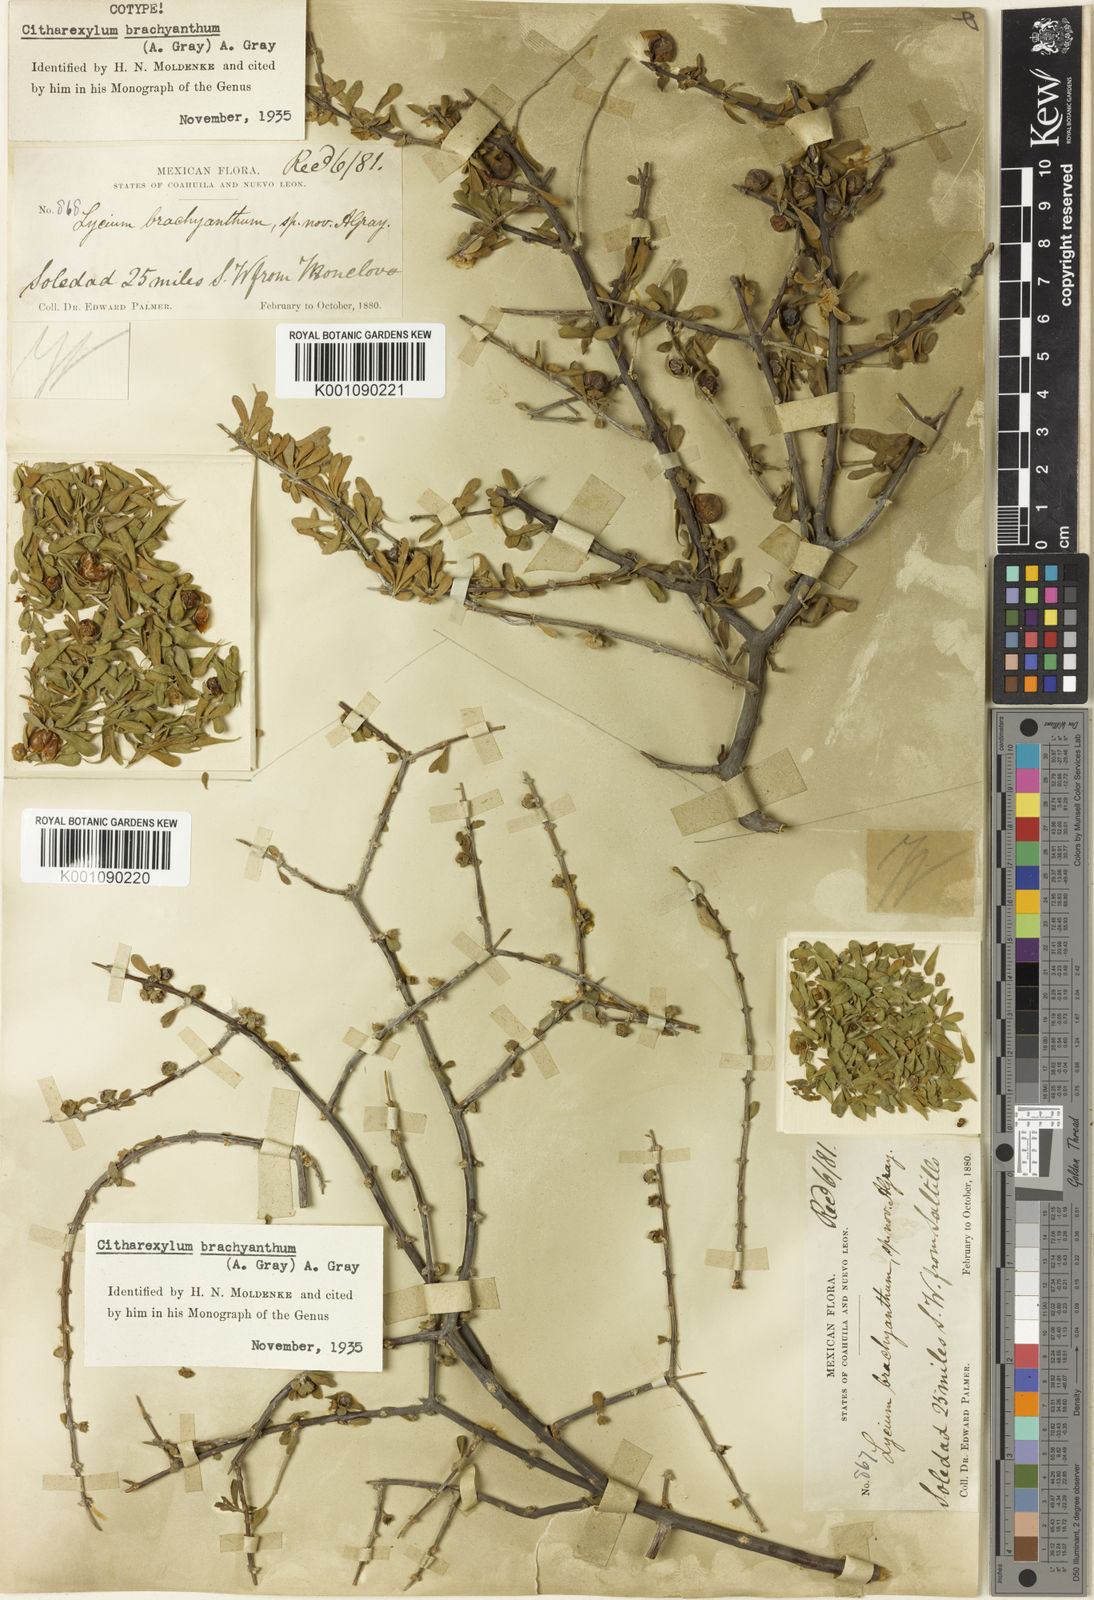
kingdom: Plantae
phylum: Tracheophyta
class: Magnoliopsida
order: Lamiales
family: Verbenaceae
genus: Citharexylum
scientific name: Citharexylum brachyanthum
